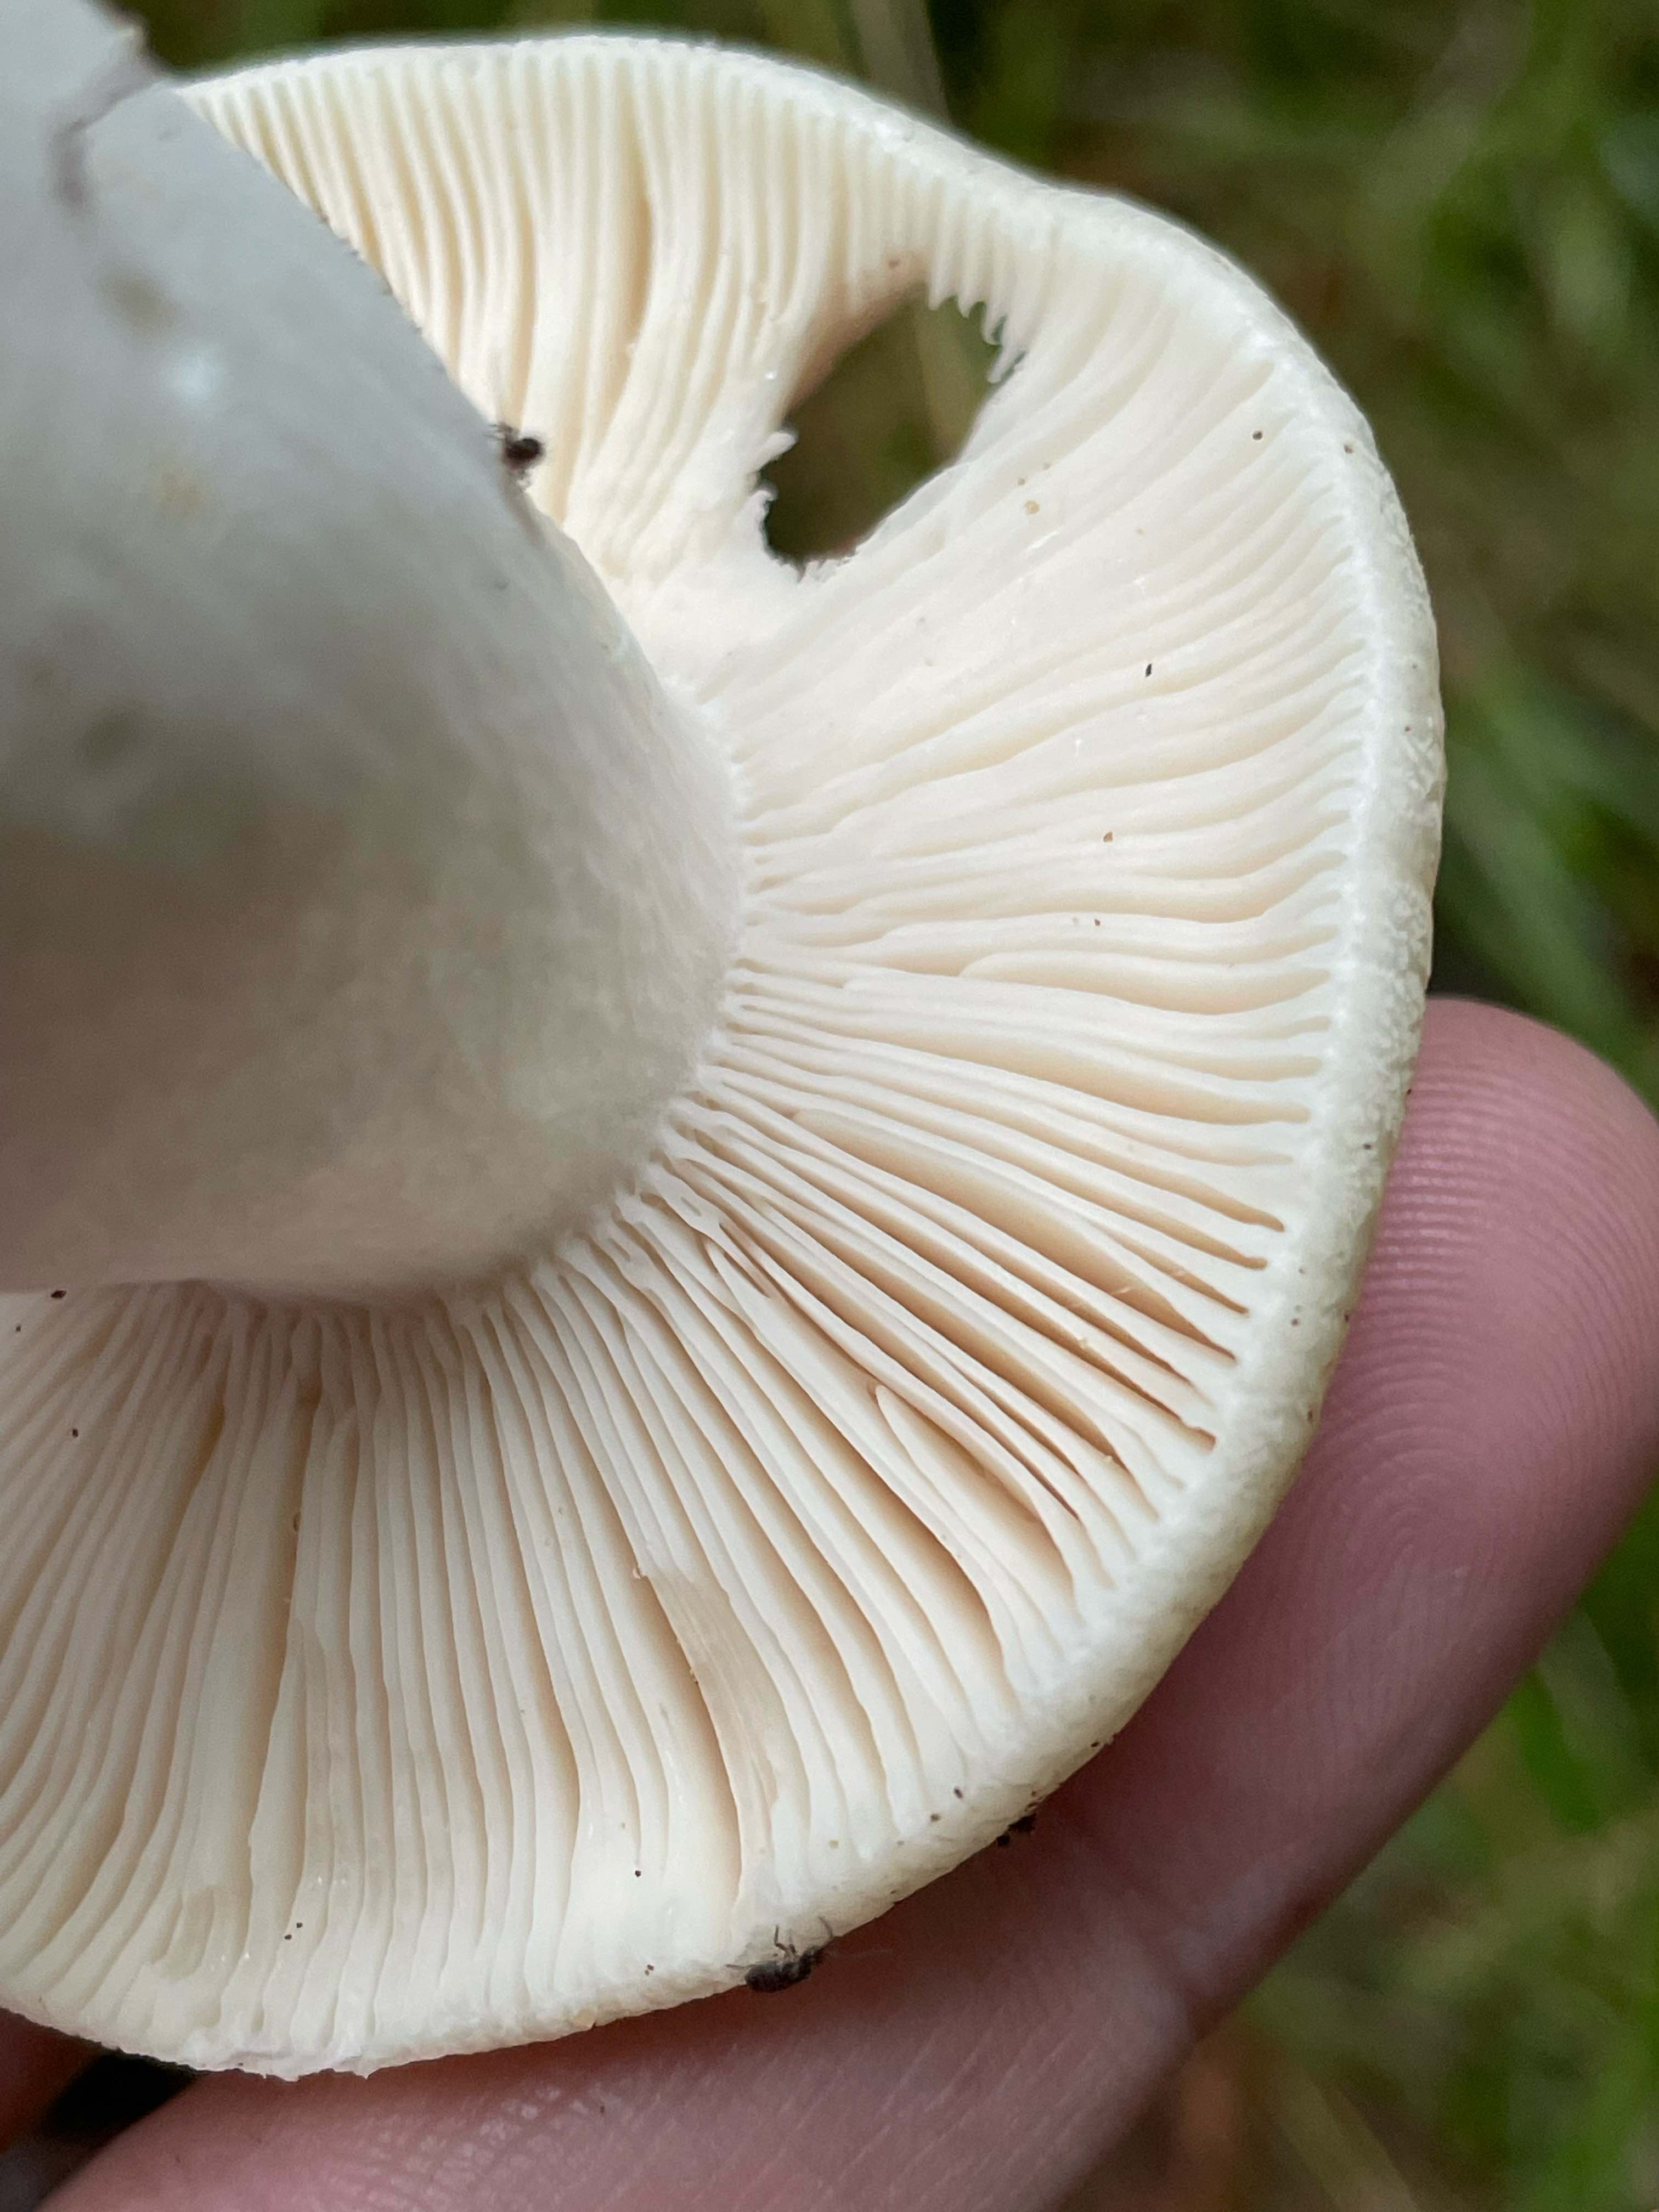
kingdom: Fungi
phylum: Basidiomycota
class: Agaricomycetes
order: Russulales
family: Russulaceae
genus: Russula
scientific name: Russula
